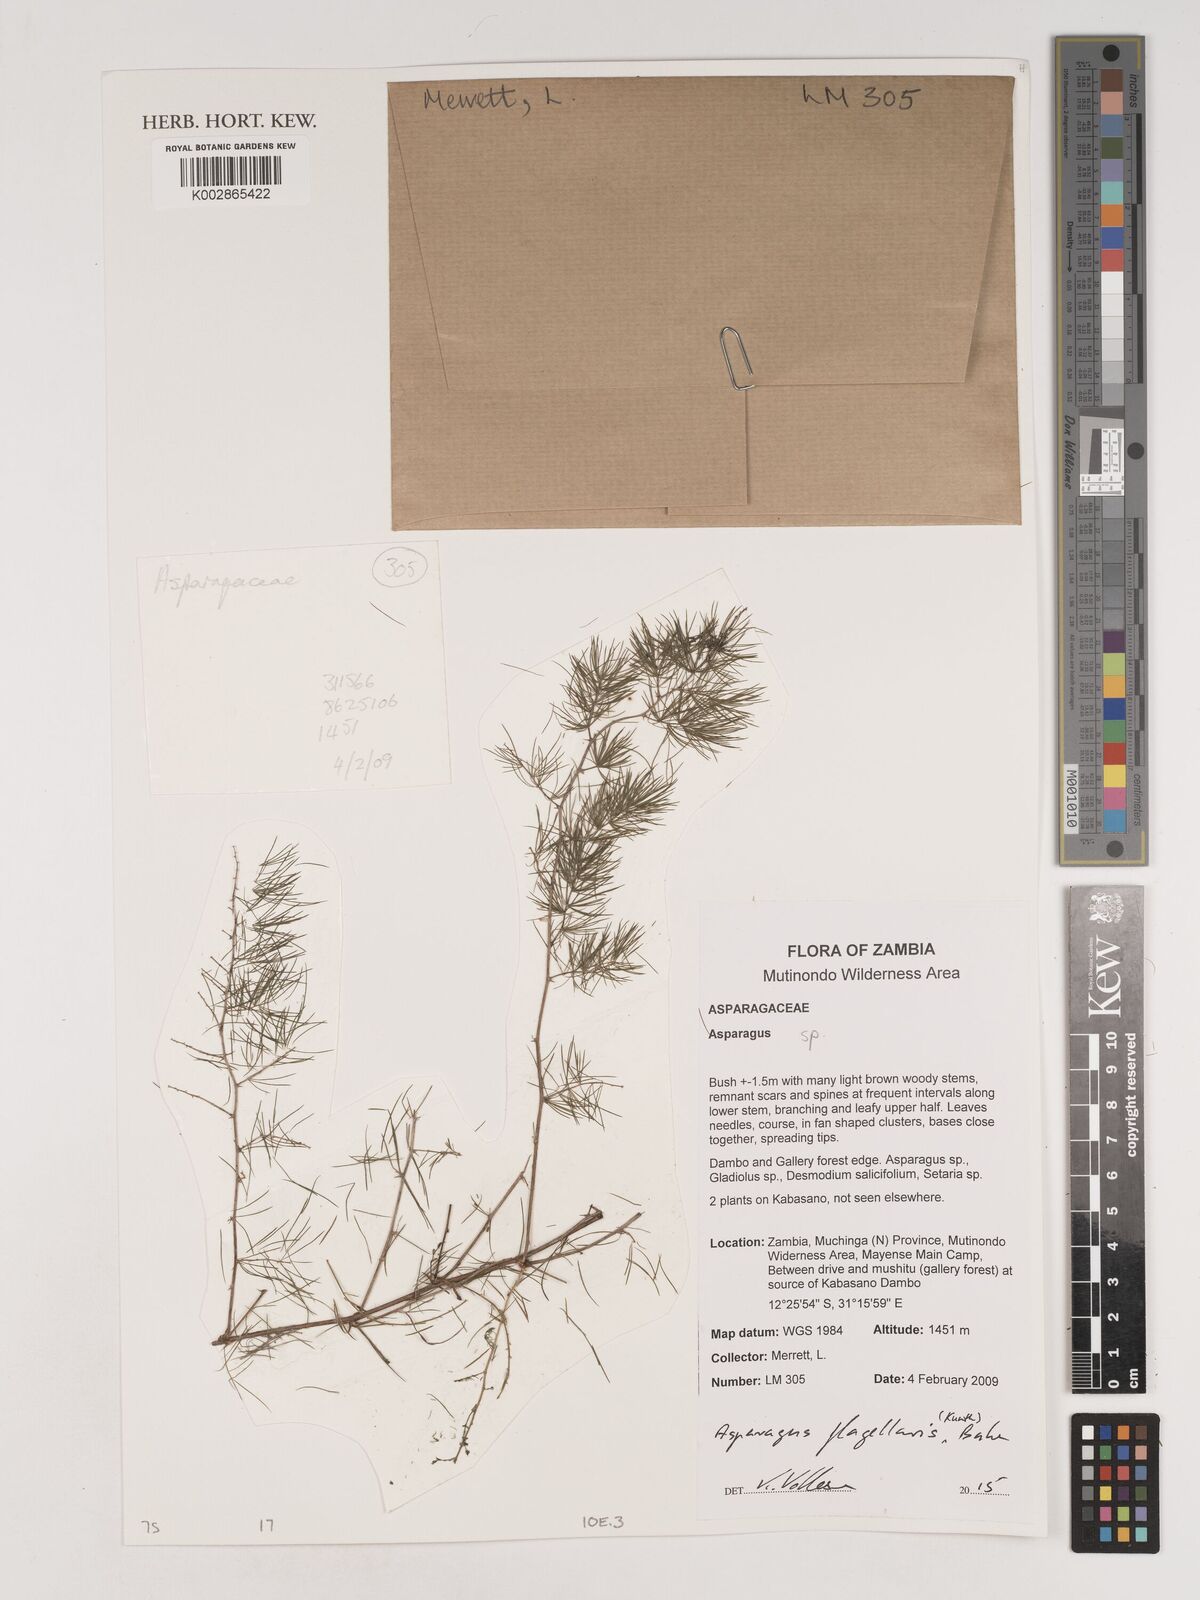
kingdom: Plantae
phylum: Tracheophyta
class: Liliopsida
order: Asparagales
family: Asparagaceae
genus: Asparagus
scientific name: Asparagus flagellaris
